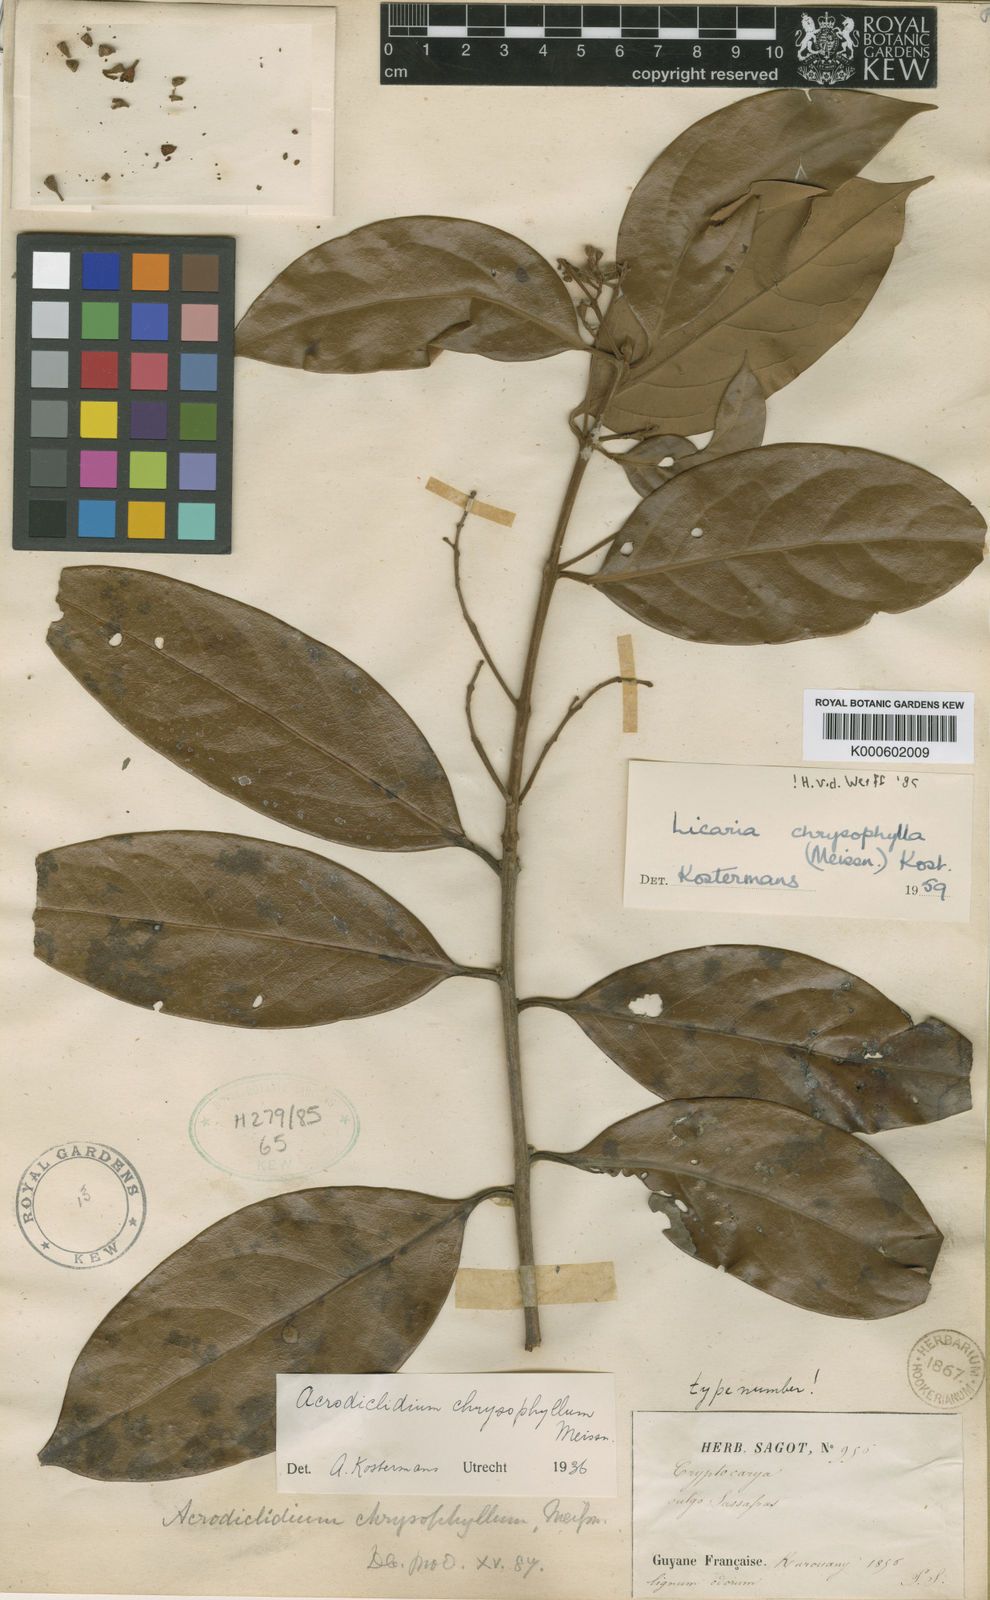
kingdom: Plantae
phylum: Tracheophyta
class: Magnoliopsida
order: Laurales
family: Lauraceae
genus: Licaria
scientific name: Licaria chrysophylla
